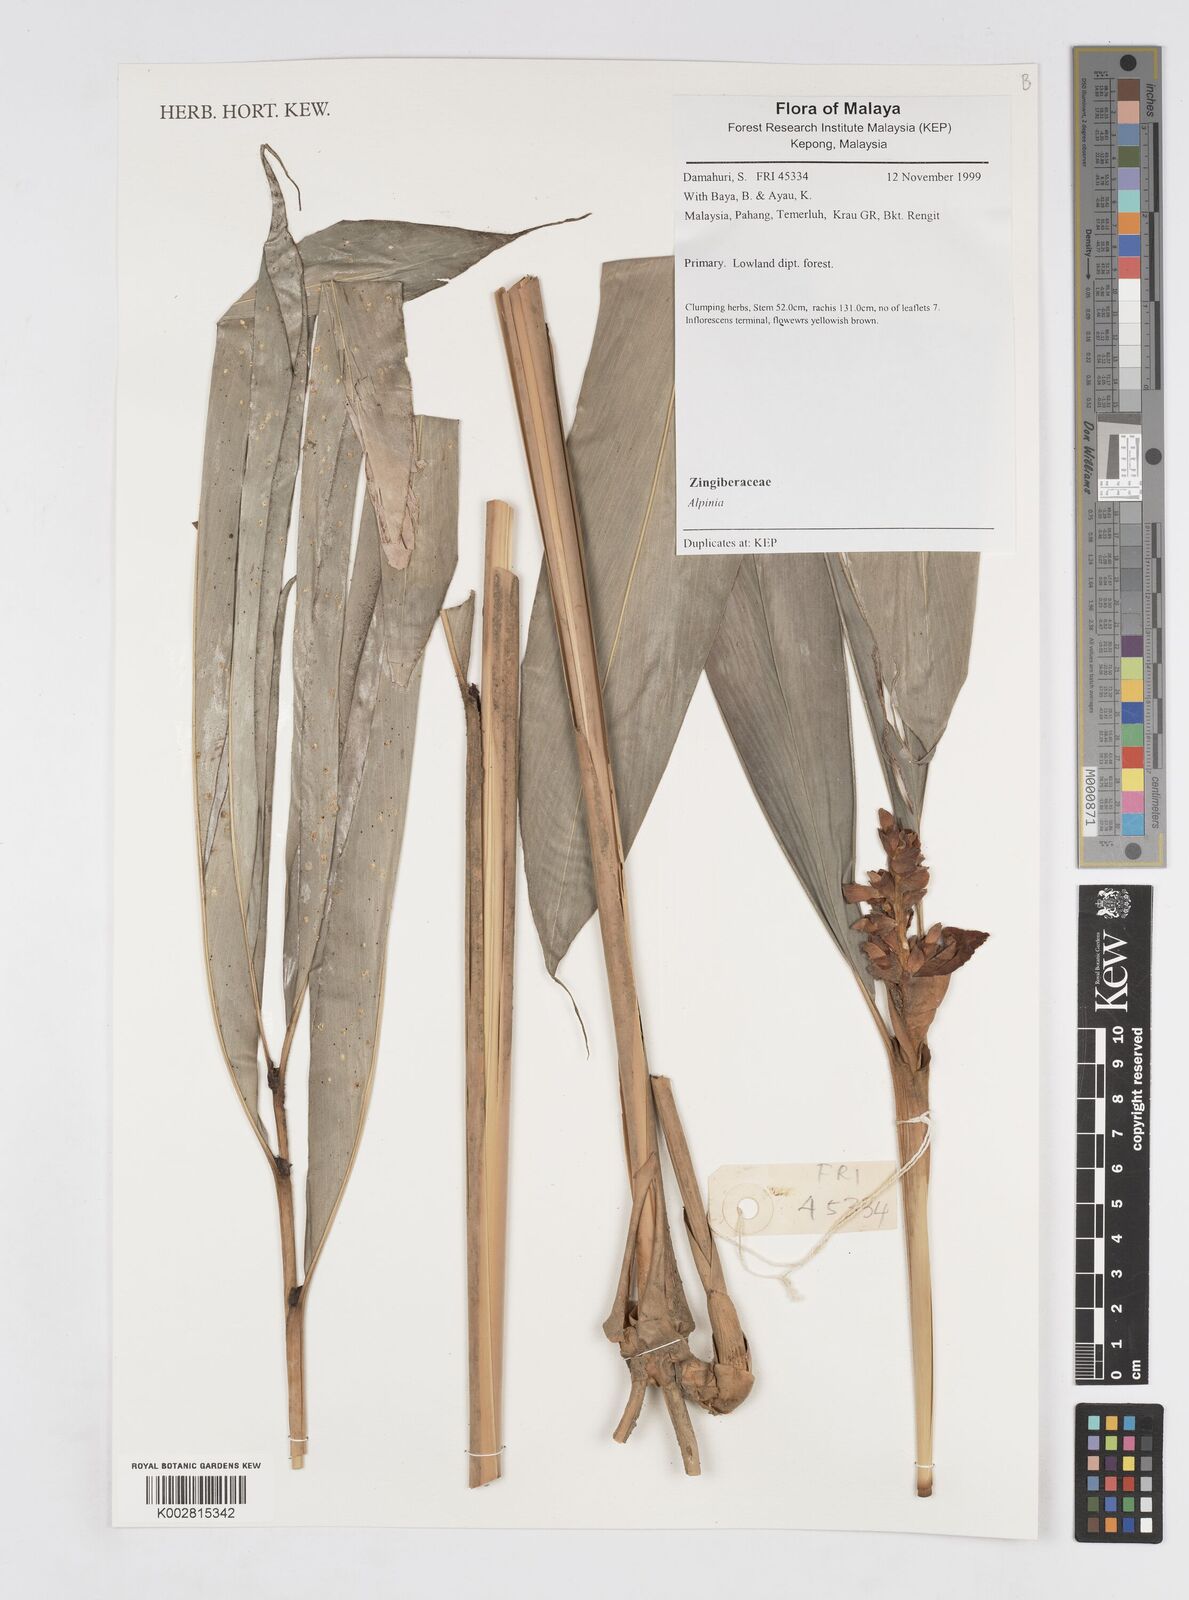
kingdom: Plantae
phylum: Tracheophyta
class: Liliopsida
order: Zingiberales
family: Zingiberaceae
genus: Alpinia
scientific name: Alpinia
